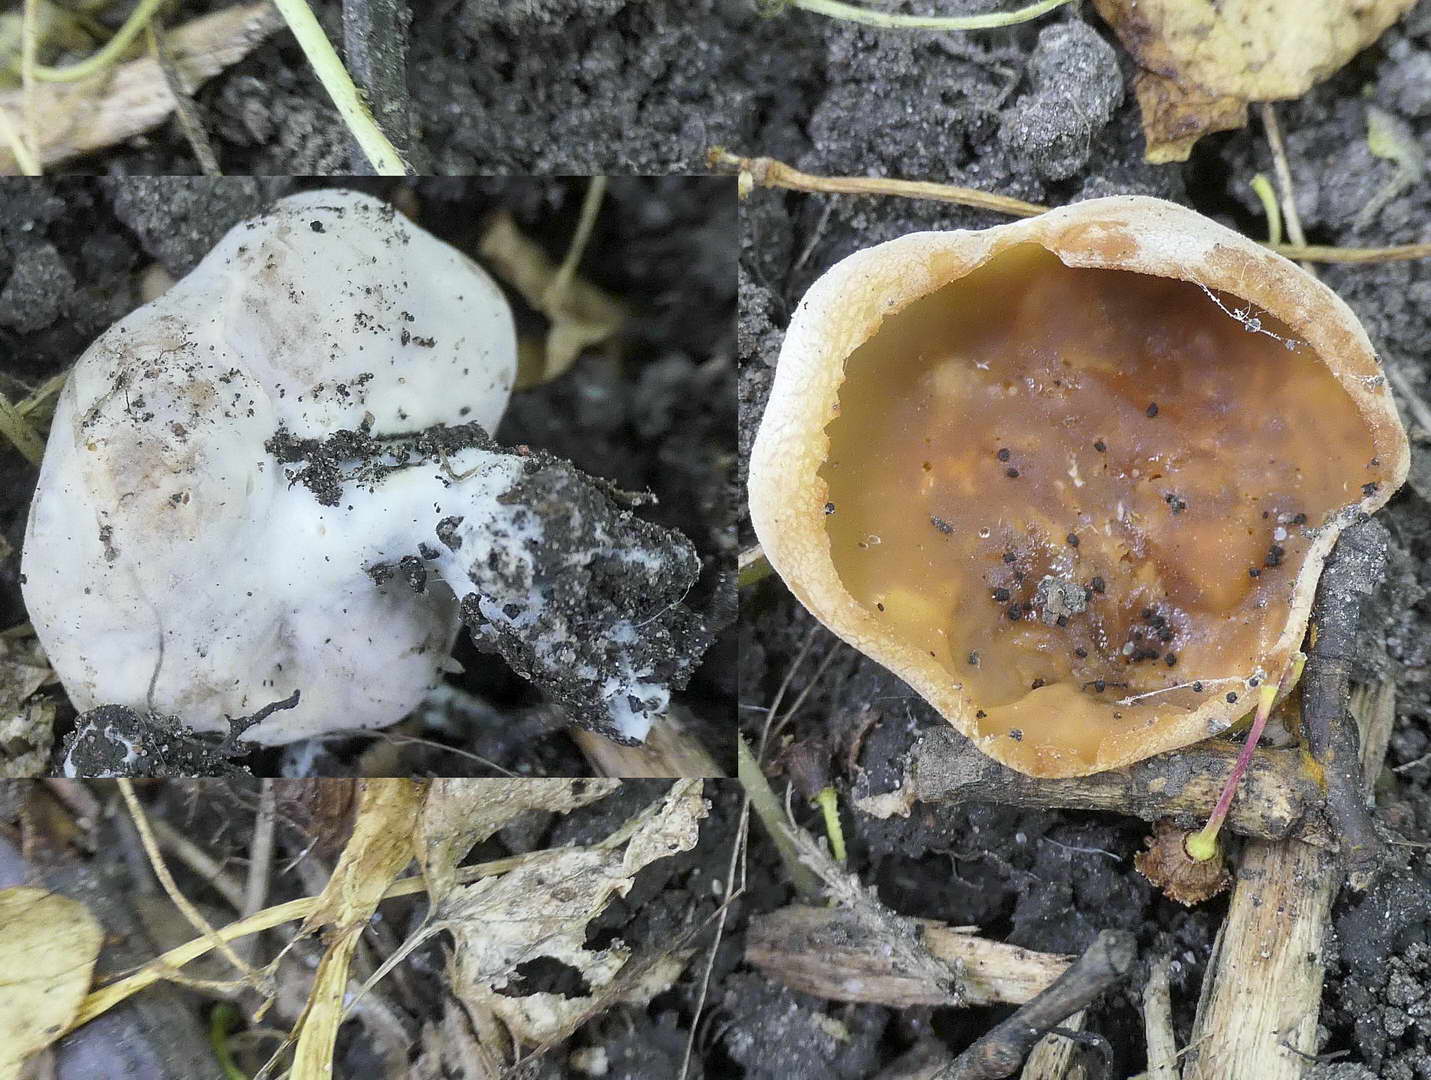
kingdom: Fungi
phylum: Ascomycota
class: Pezizomycetes
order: Pezizales
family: Pezizaceae
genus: Peziza
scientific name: Peziza
